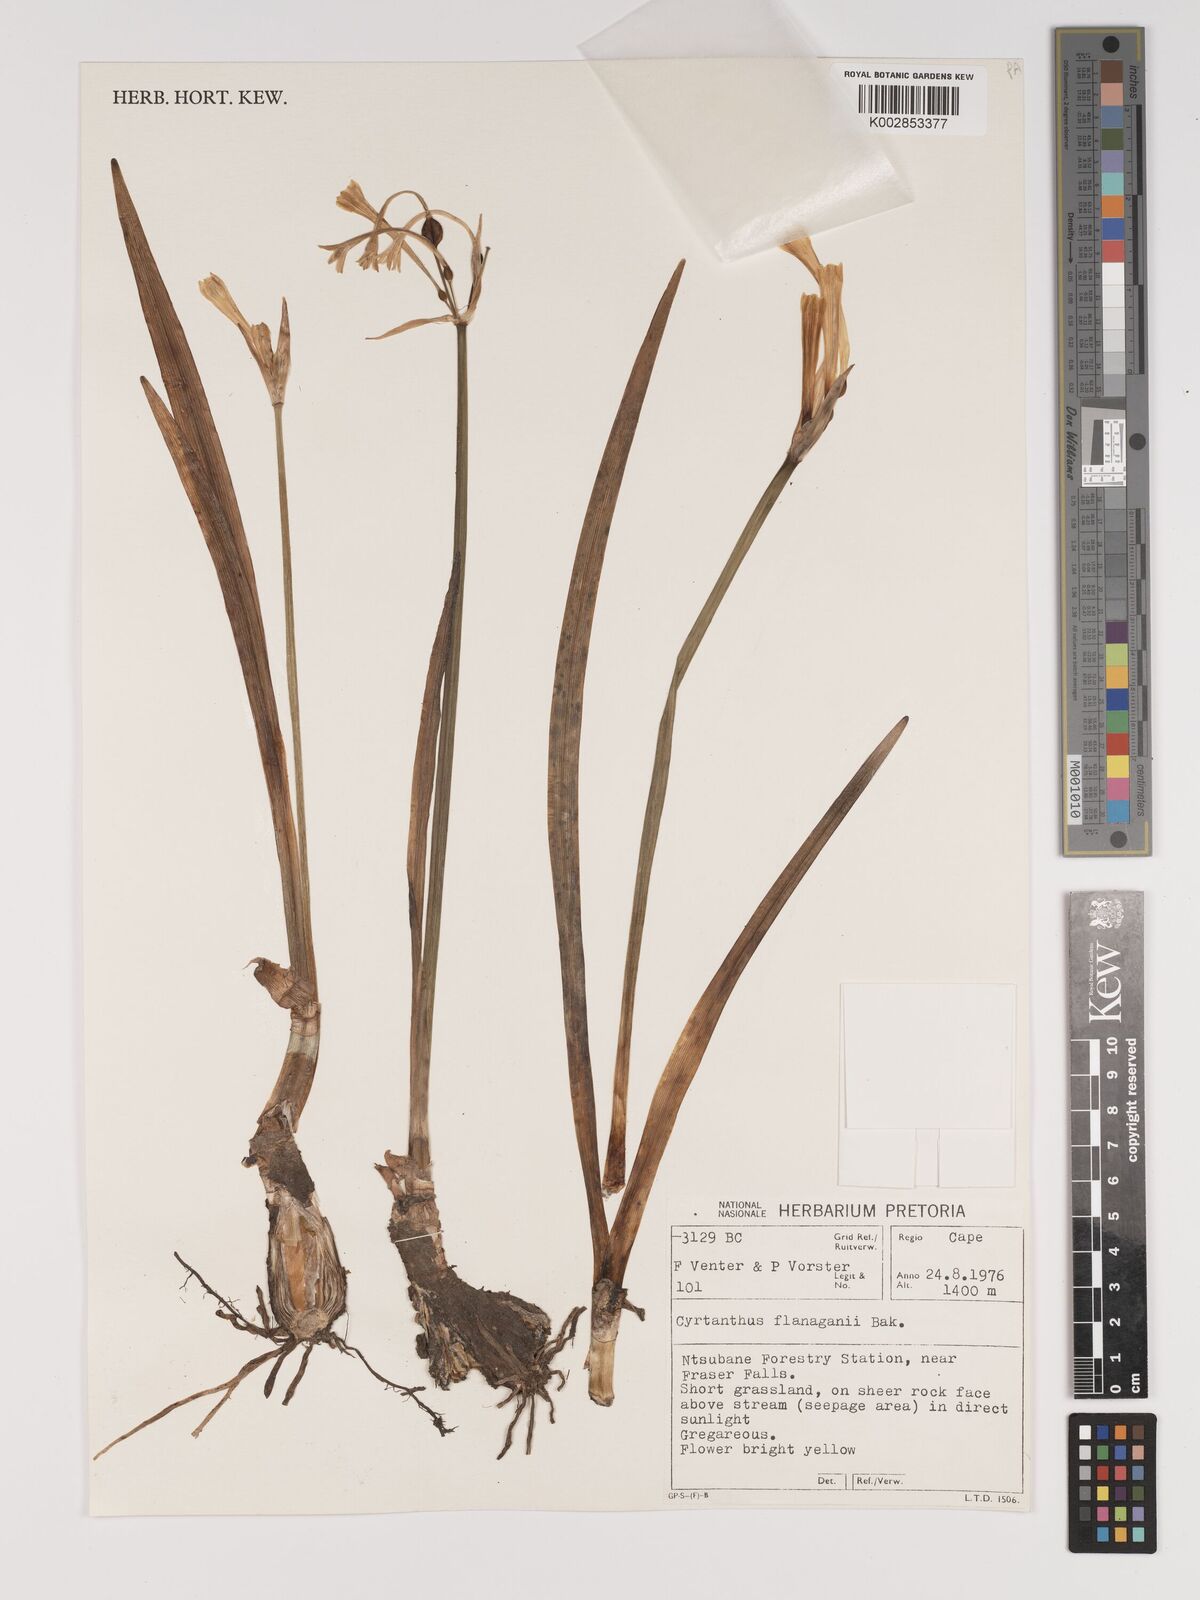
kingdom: Plantae
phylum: Tracheophyta
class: Liliopsida
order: Asparagales
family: Amaryllidaceae
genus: Cyrtanthus
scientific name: Cyrtanthus flanaganii
